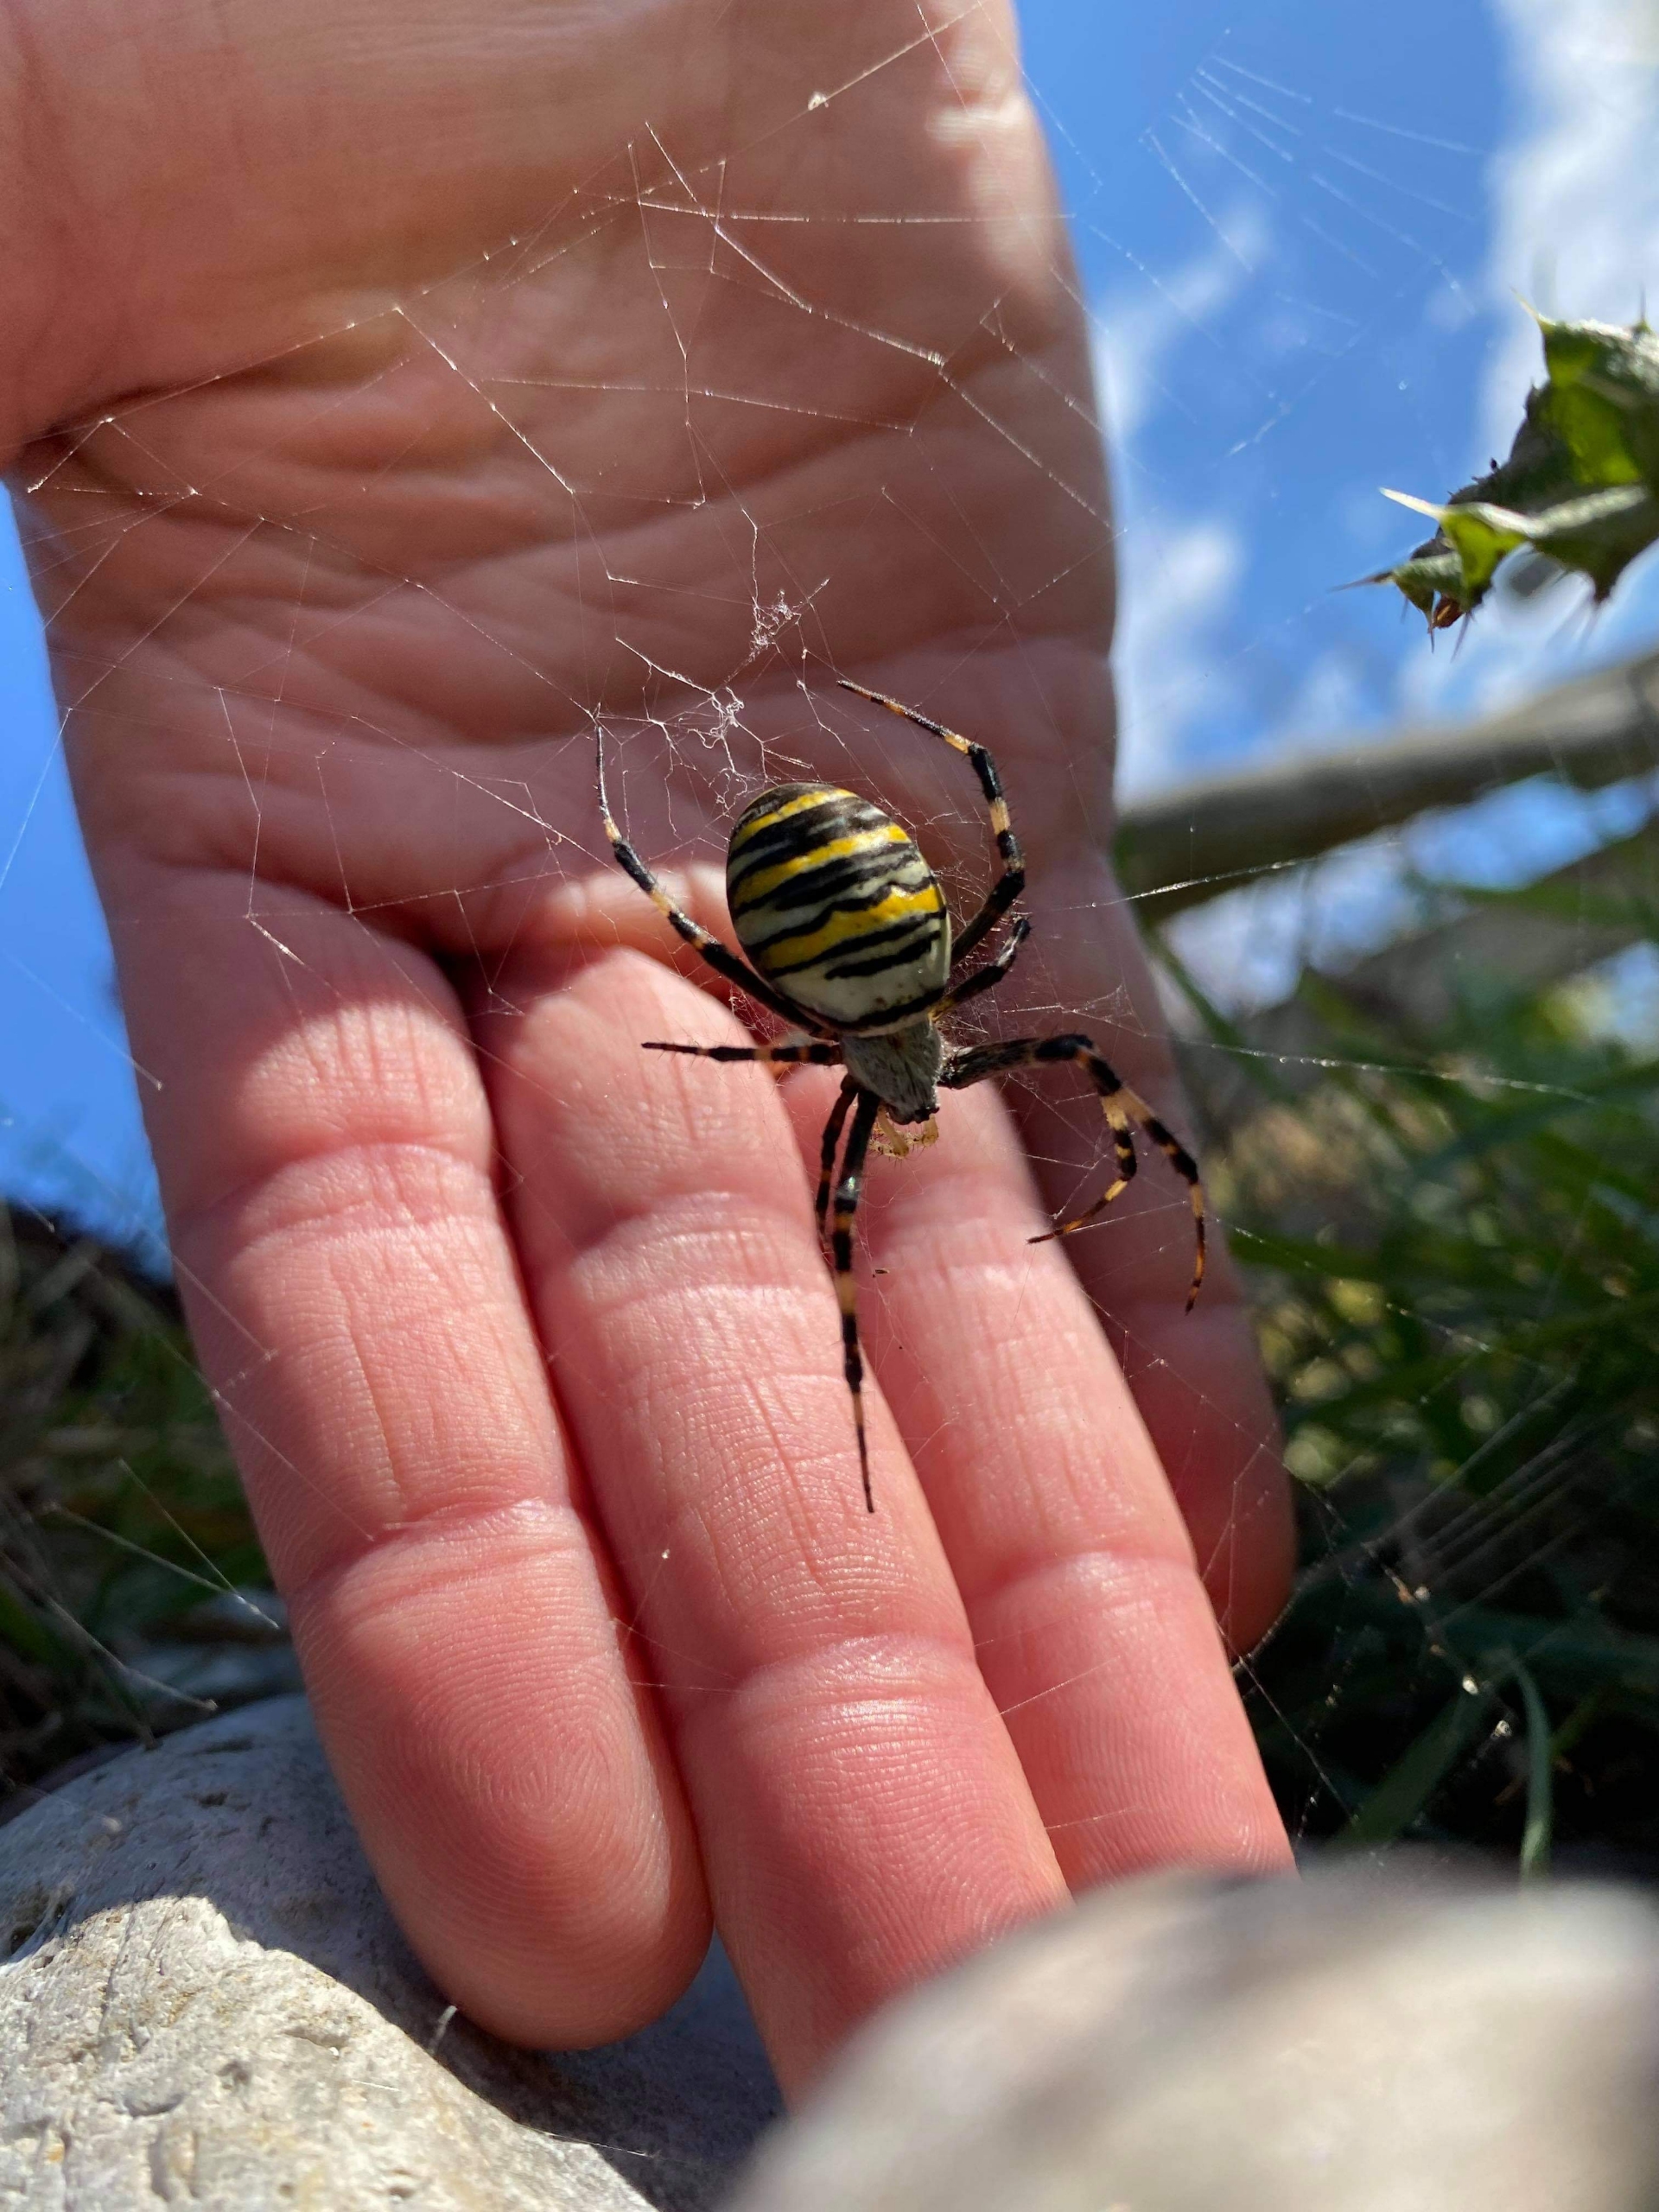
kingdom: Animalia
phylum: Arthropoda
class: Arachnida
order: Araneae
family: Araneidae
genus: Argiope
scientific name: Argiope bruennichi
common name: Hvepseedderkop
